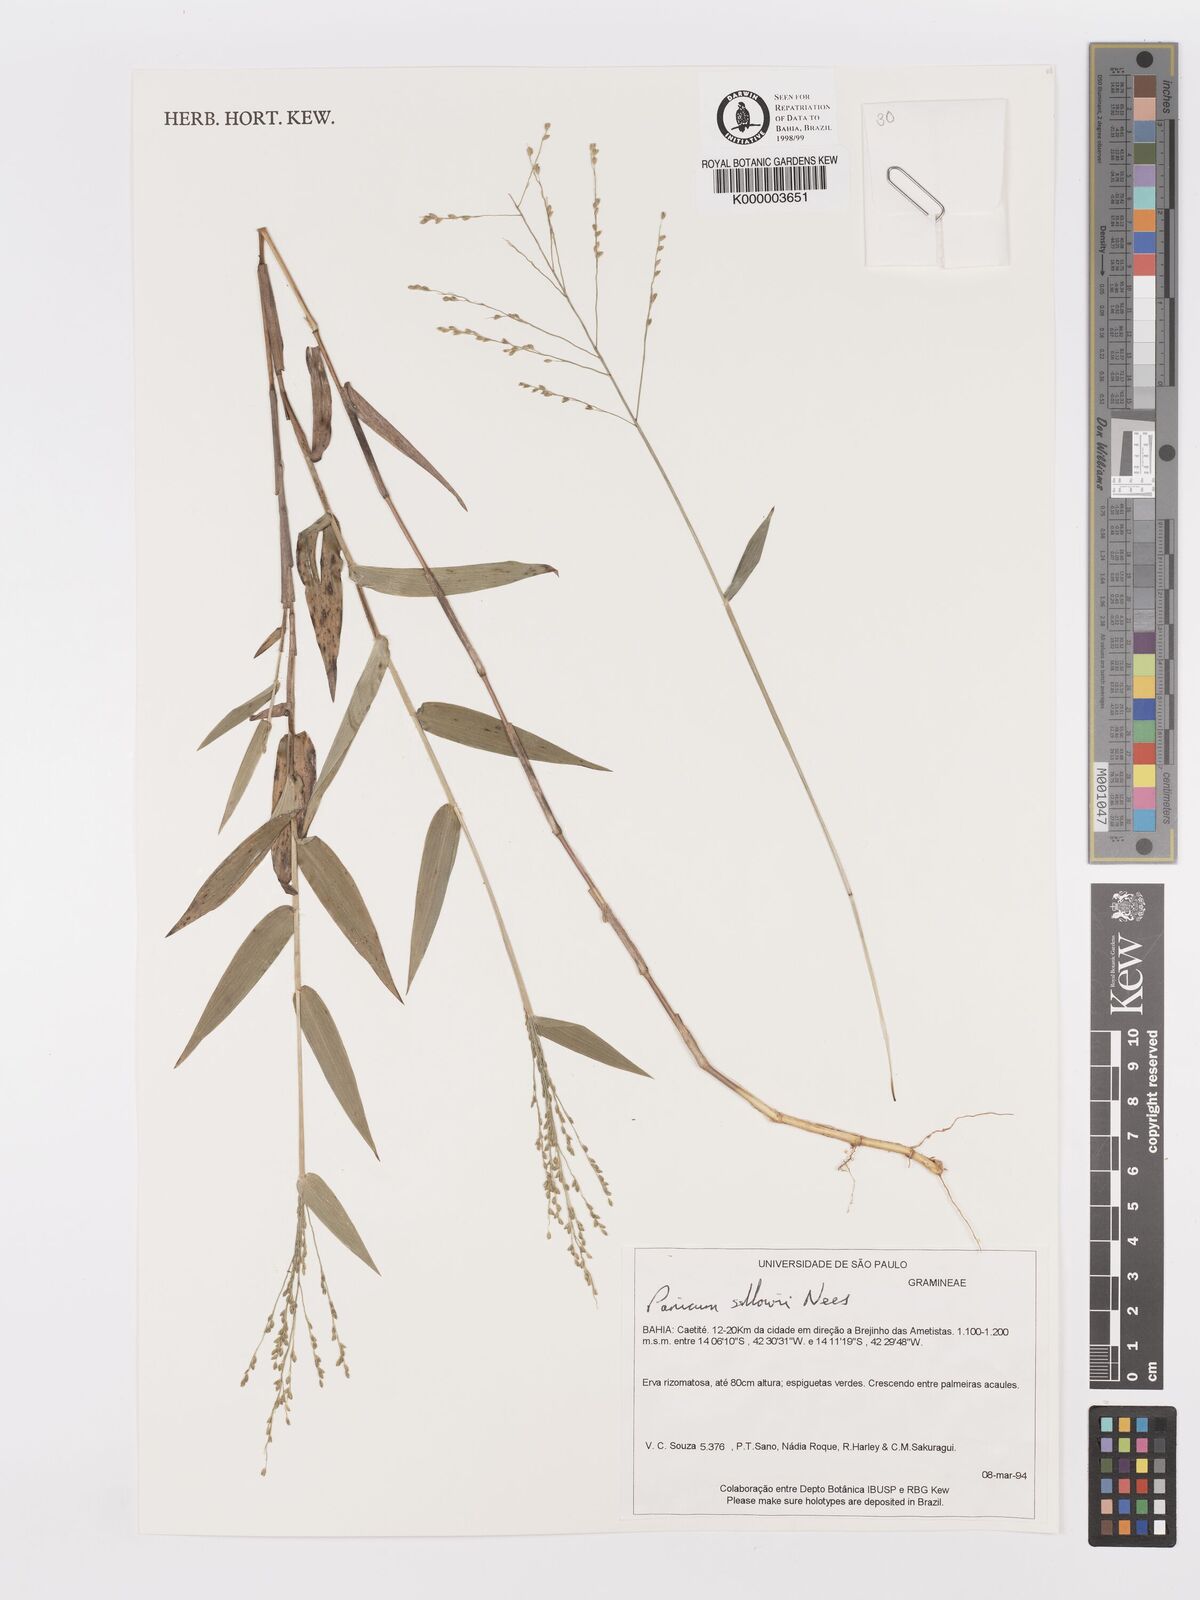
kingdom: Plantae
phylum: Tracheophyta
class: Liliopsida
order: Poales
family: Poaceae
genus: Panicum
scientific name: Panicum sellowii
